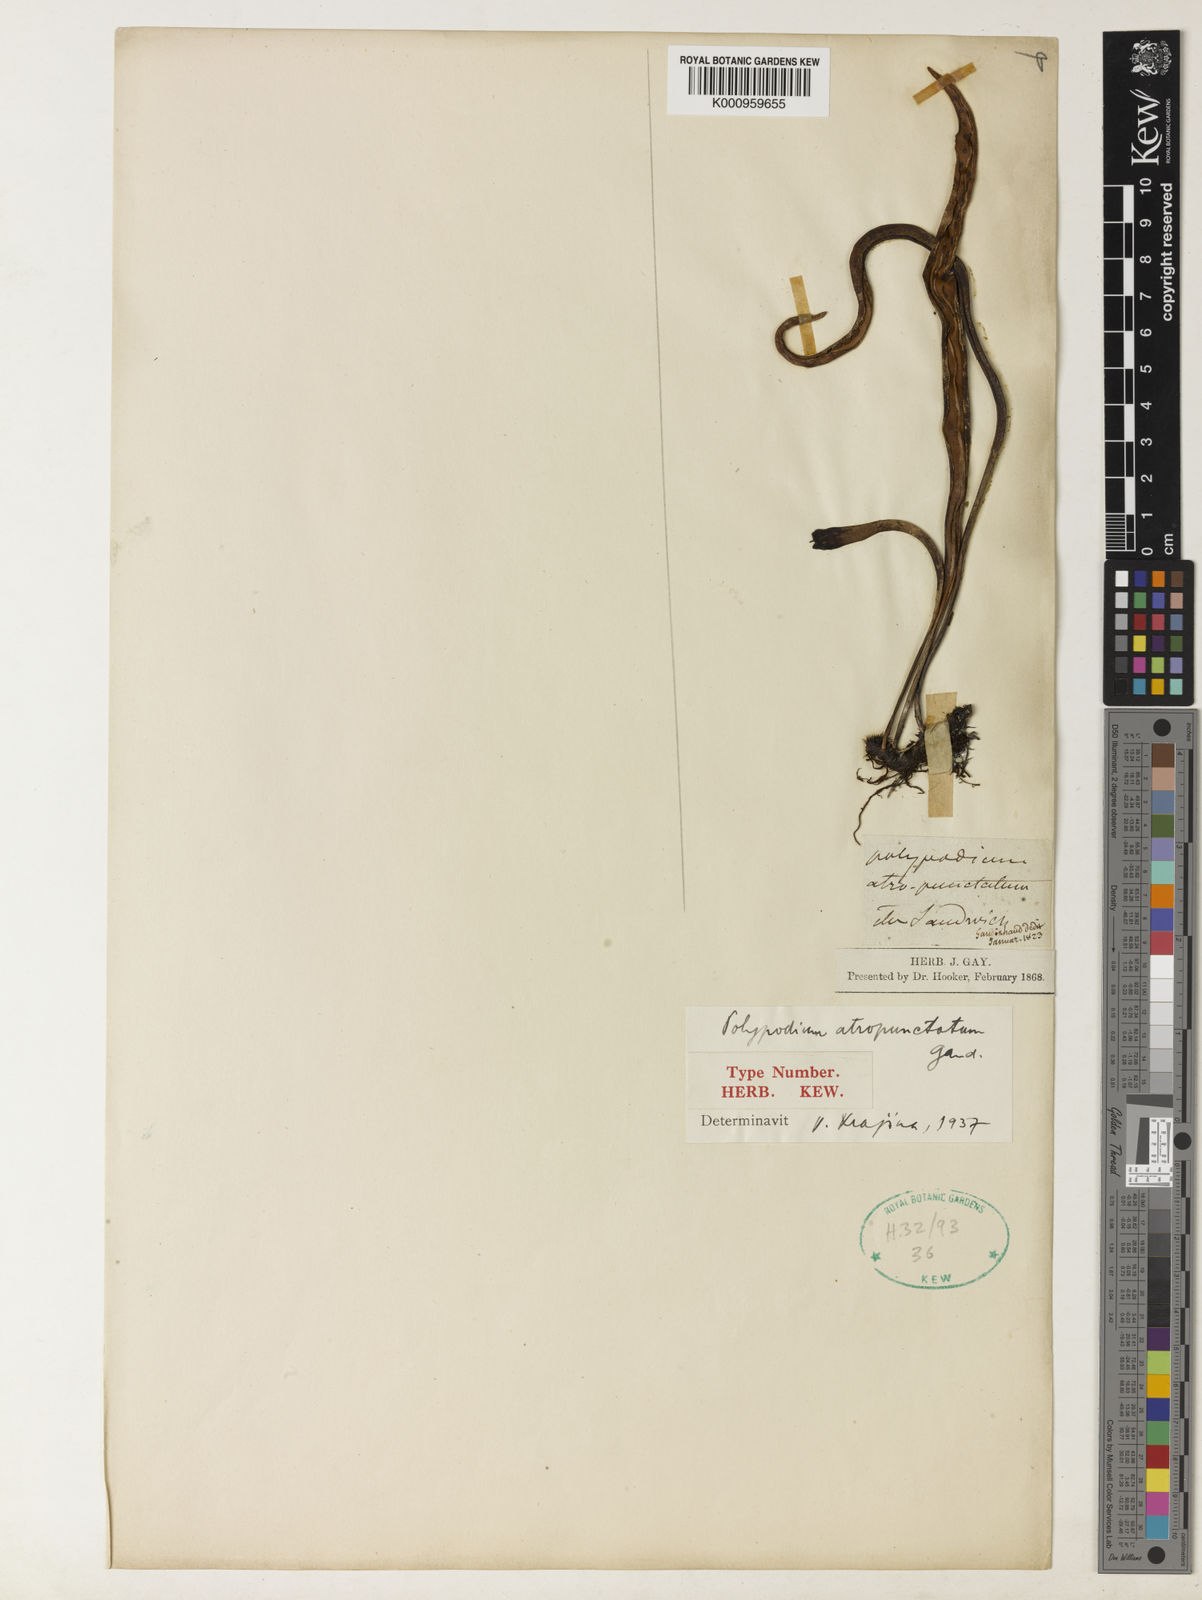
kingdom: Plantae
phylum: Tracheophyta
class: Polypodiopsida
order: Polypodiales
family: Polypodiaceae
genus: Lepisorus
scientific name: Lepisorus
